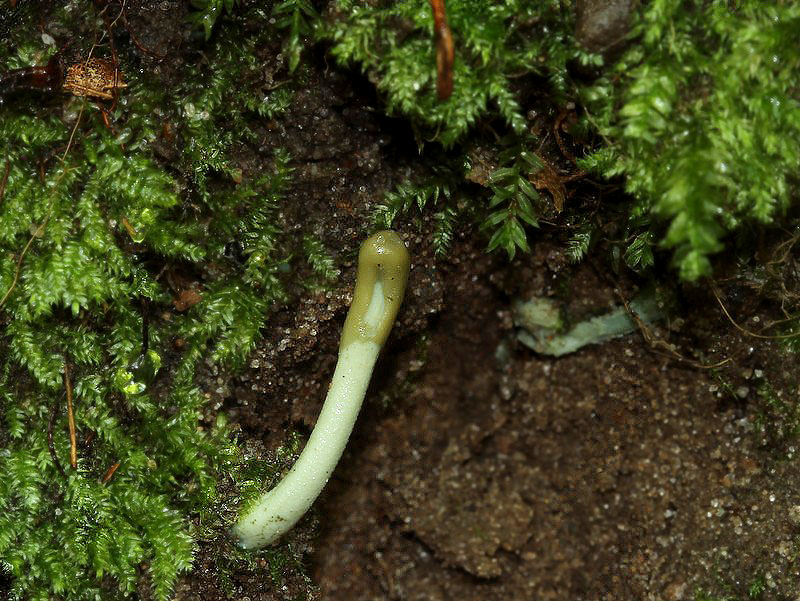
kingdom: Fungi
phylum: Ascomycota
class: Leotiomycetes
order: Leotiales
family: Leotiaceae
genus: Microglossum
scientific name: Microglossum griseoviride
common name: grågrøn farvetunge
